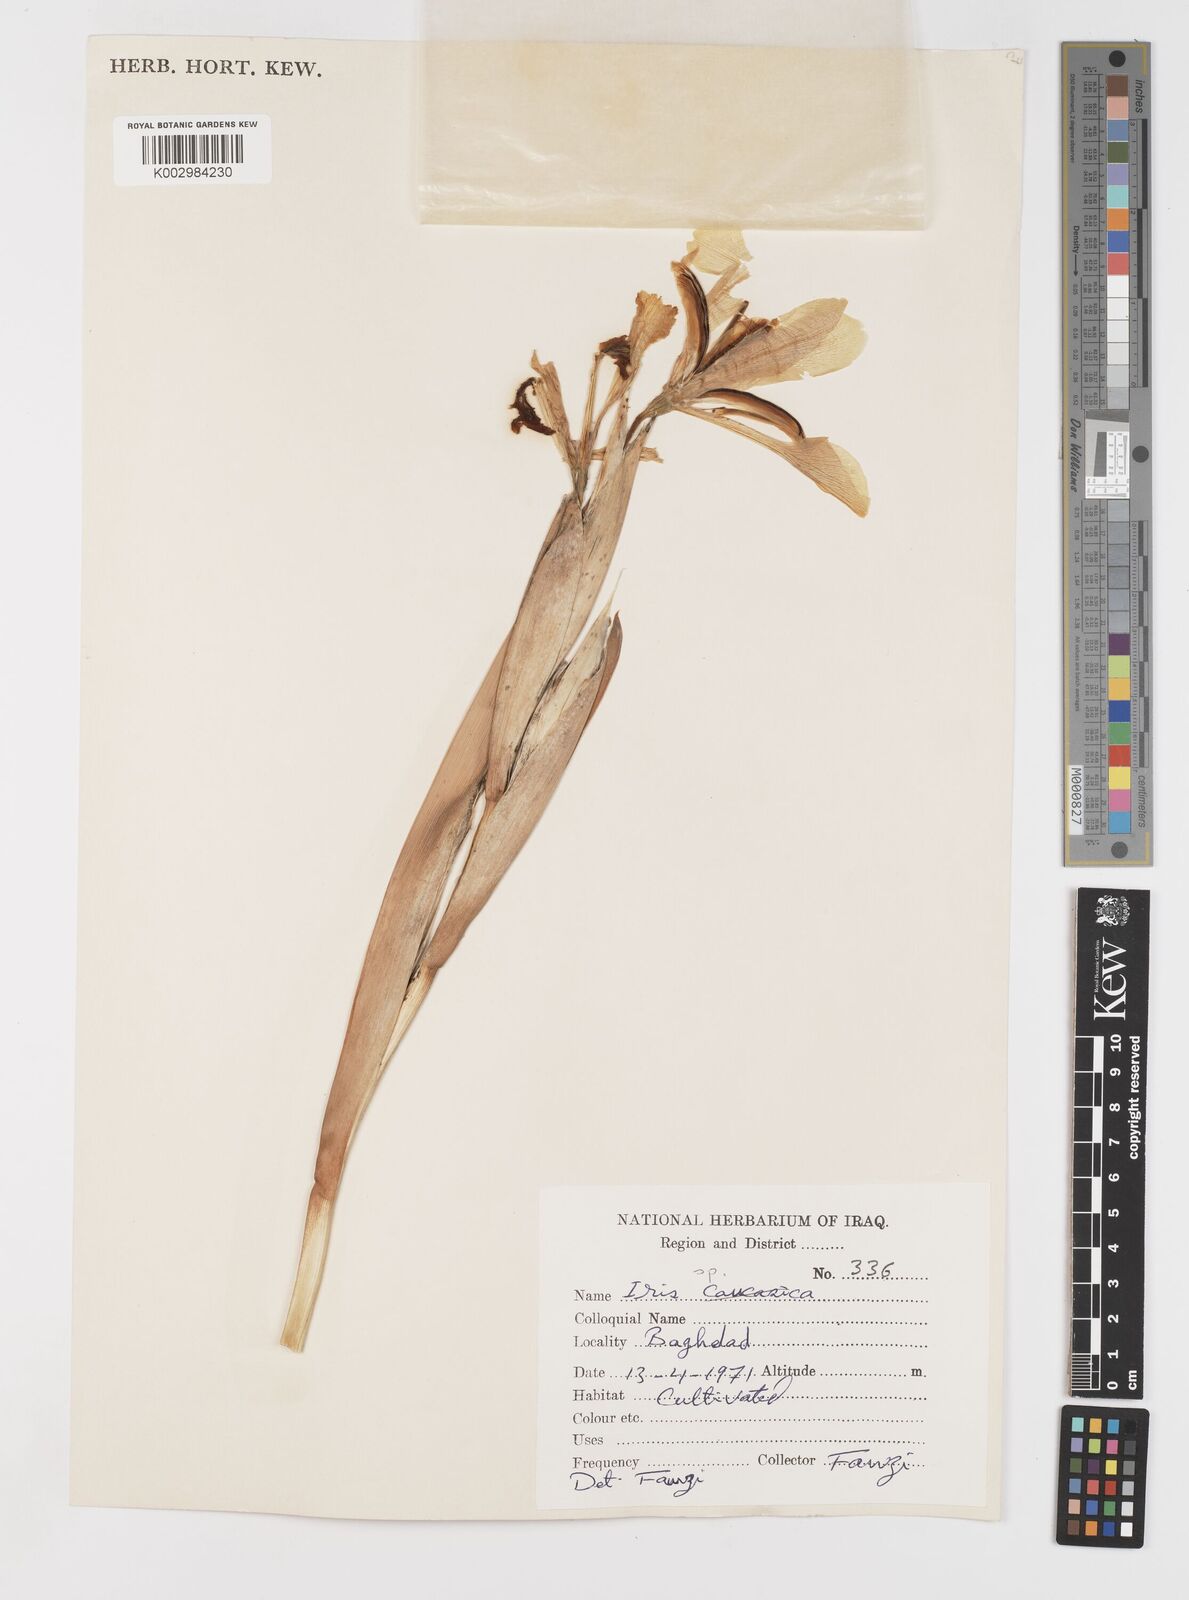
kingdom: Plantae
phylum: Tracheophyta
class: Liliopsida
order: Asparagales
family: Iridaceae
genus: Iris
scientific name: Iris spuria
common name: Blue iris
